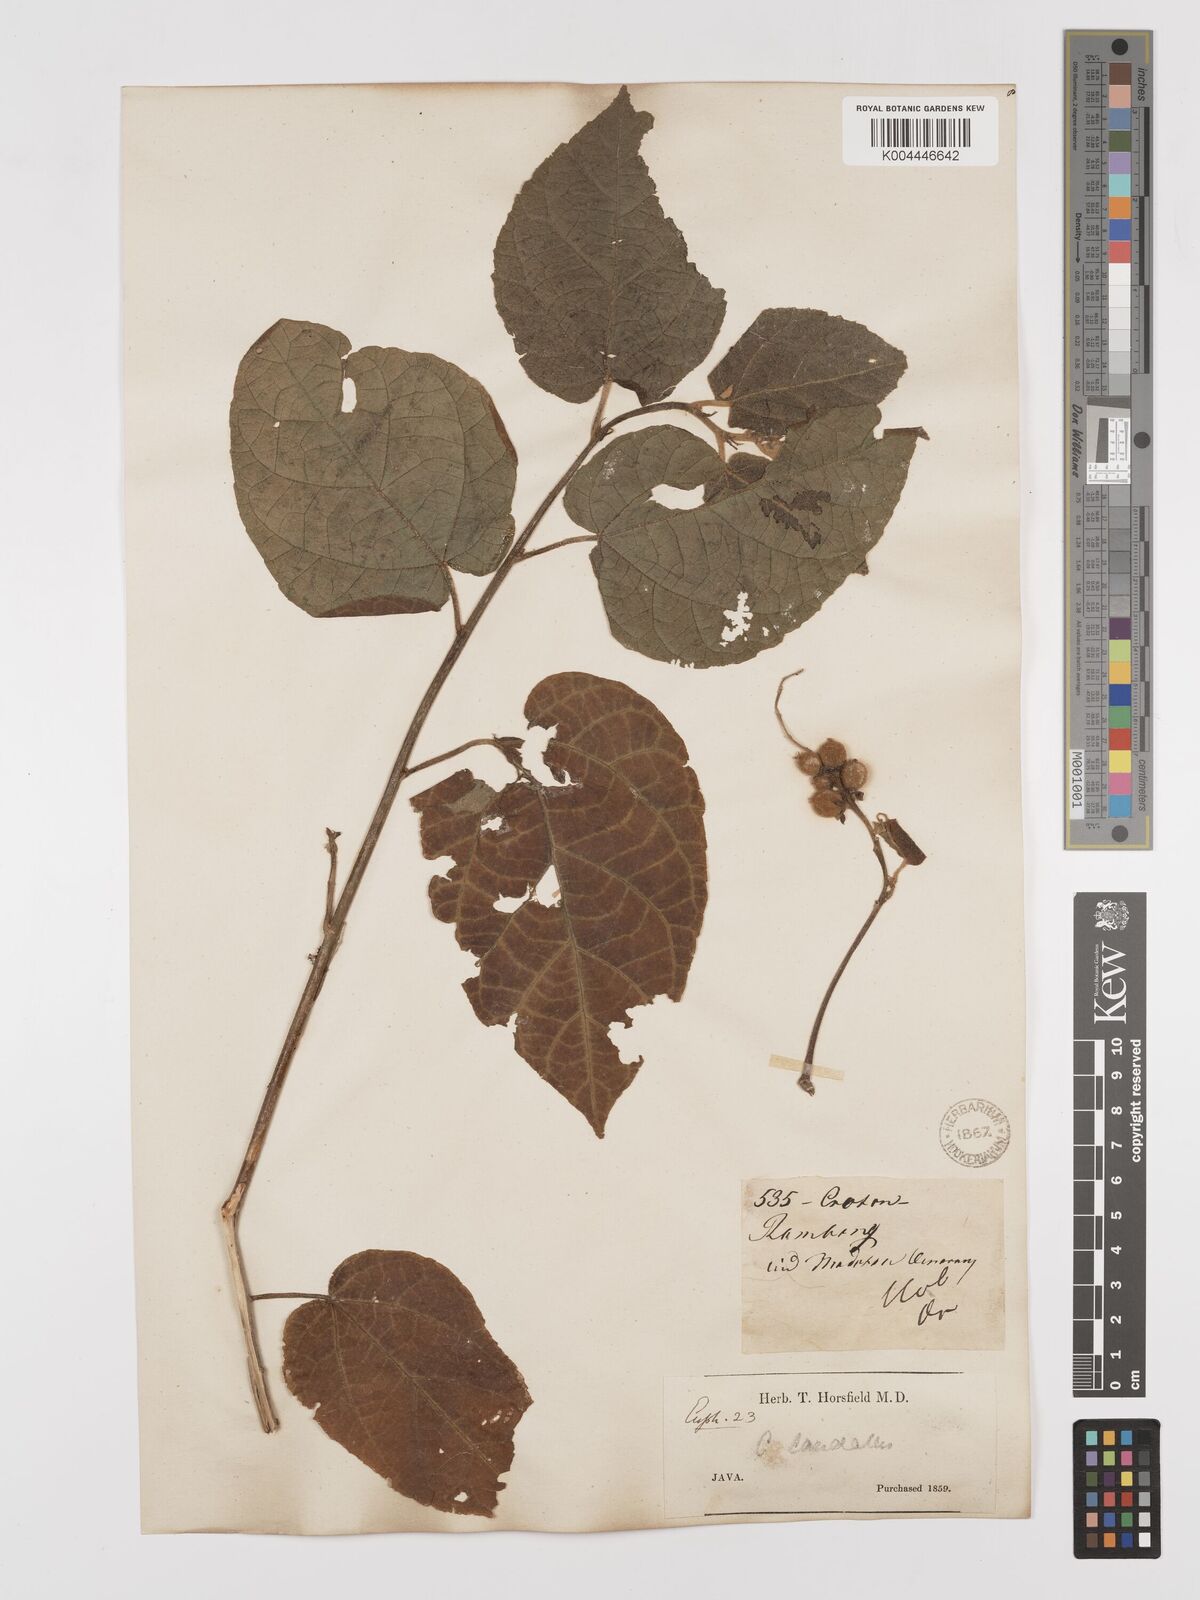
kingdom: Plantae
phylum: Tracheophyta
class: Magnoliopsida
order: Malpighiales
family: Euphorbiaceae
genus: Croton
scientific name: Croton caudatus
